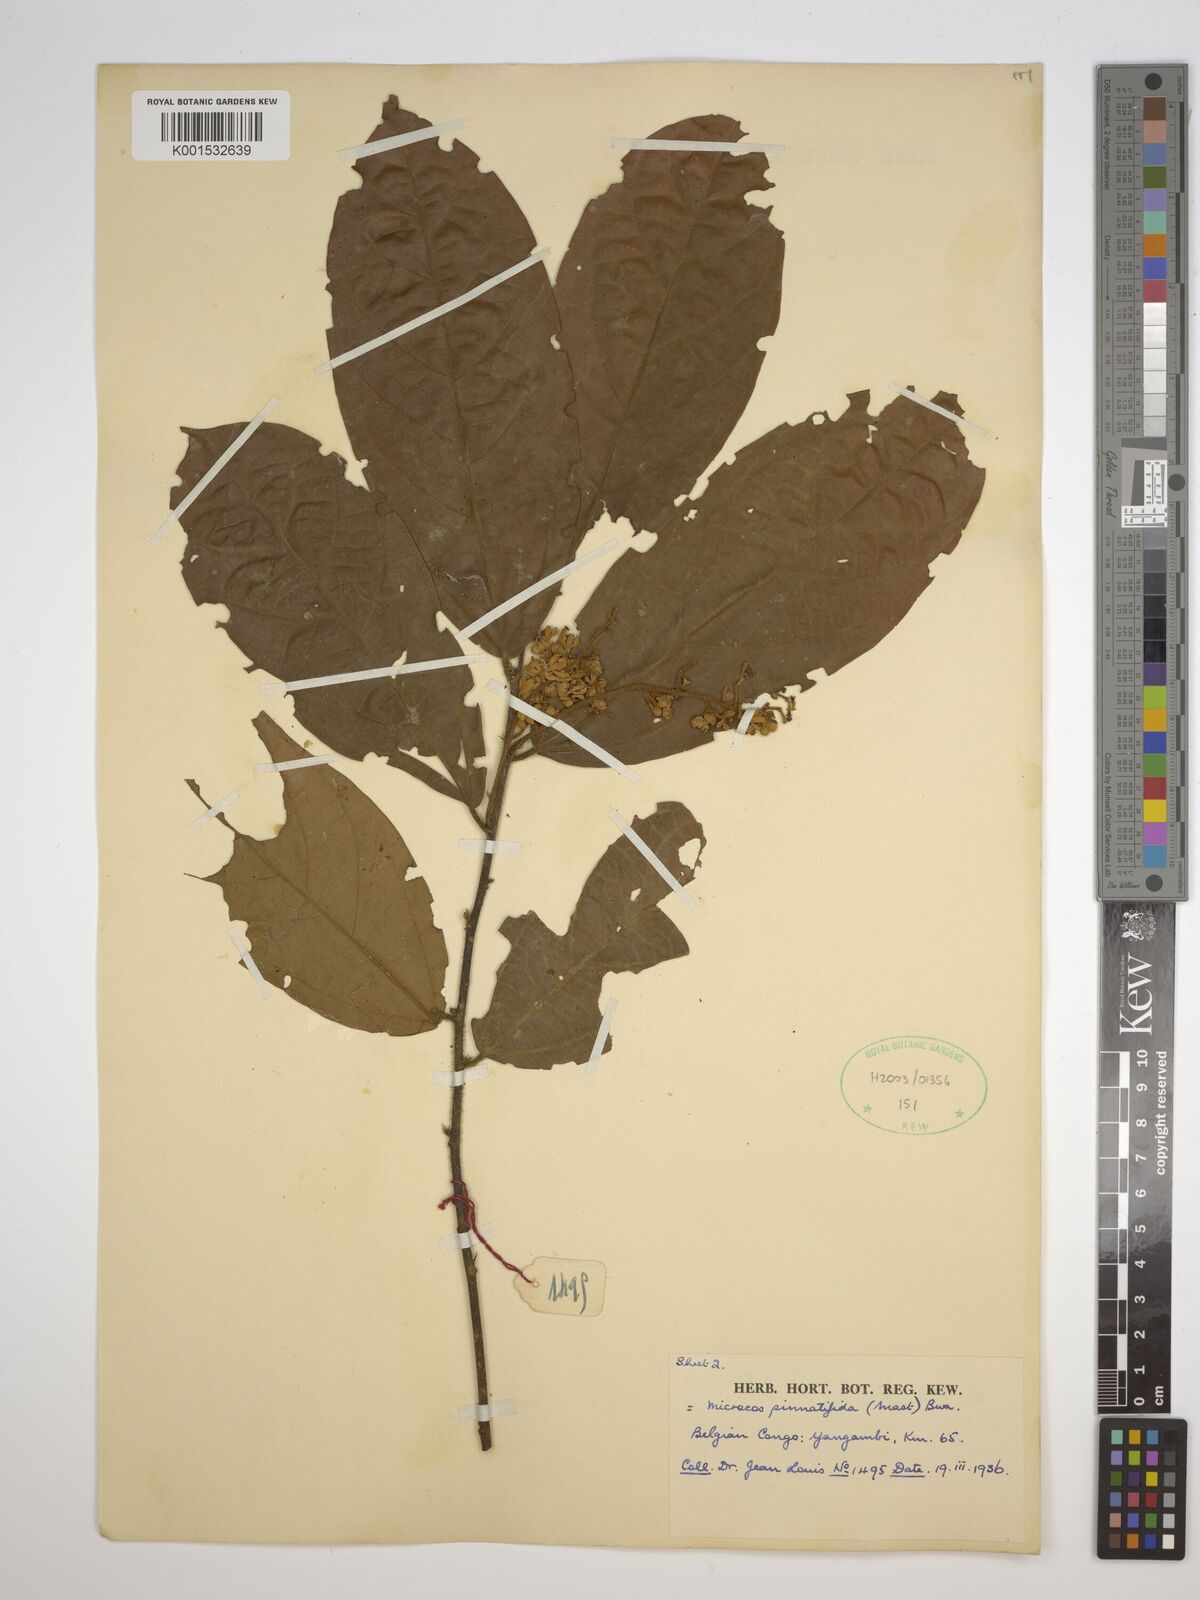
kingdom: Plantae
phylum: Tracheophyta
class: Magnoliopsida
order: Malvales
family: Malvaceae
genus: Microcos
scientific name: Microcos pinnatifida
